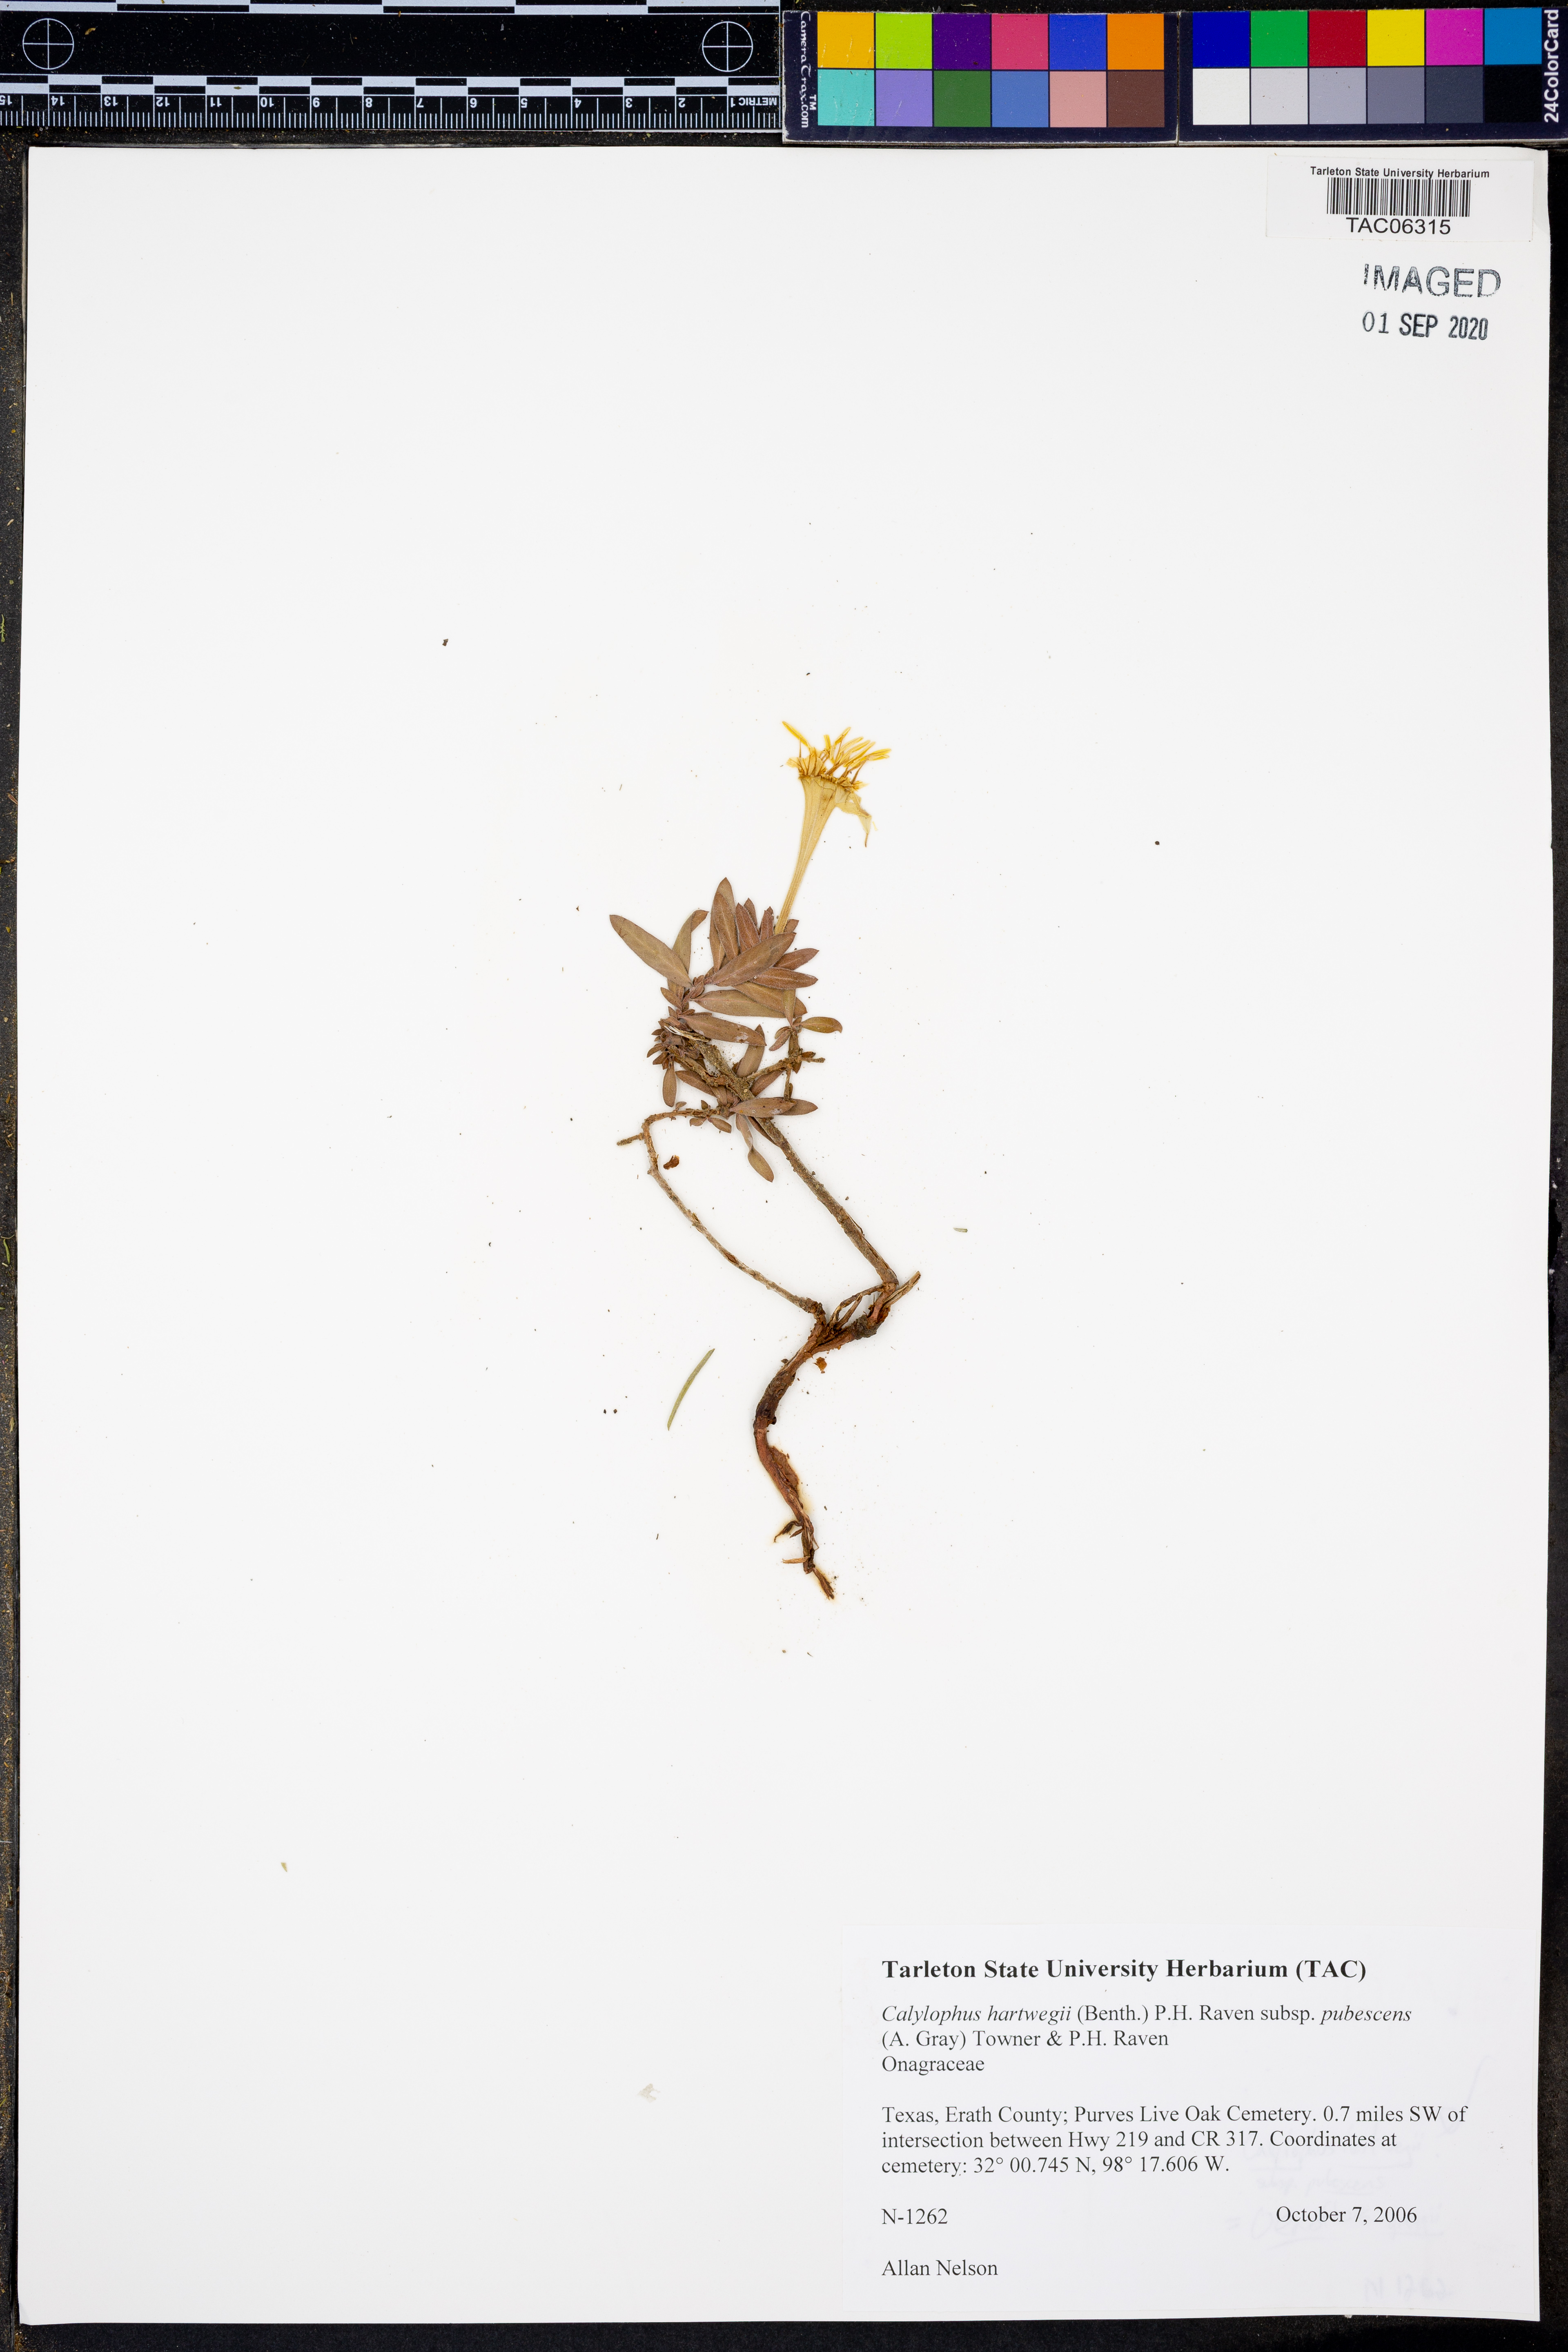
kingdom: Plantae
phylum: Tracheophyta
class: Magnoliopsida
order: Myrtales
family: Onagraceae
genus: Oenothera
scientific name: Oenothera hartwegii
